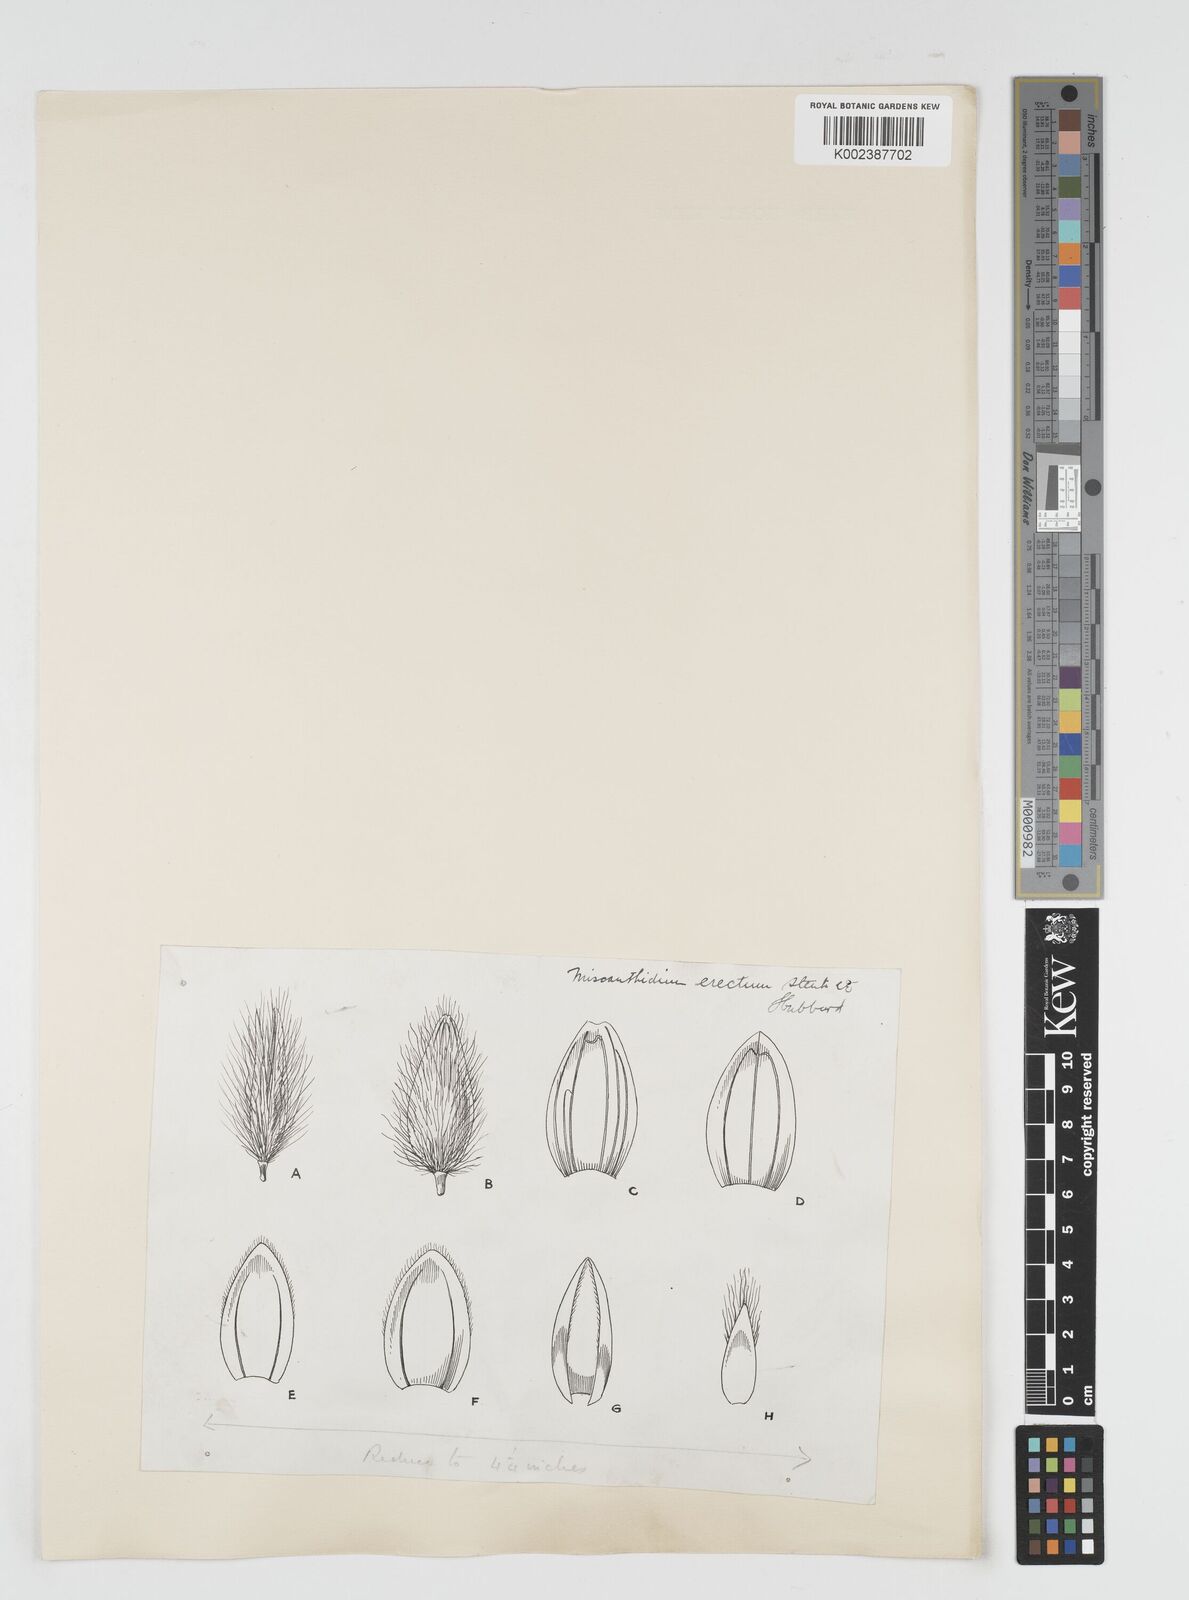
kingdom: Plantae
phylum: Tracheophyta
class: Liliopsida
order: Poales
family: Poaceae
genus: Miscanthus
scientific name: Miscanthus ecklonii
